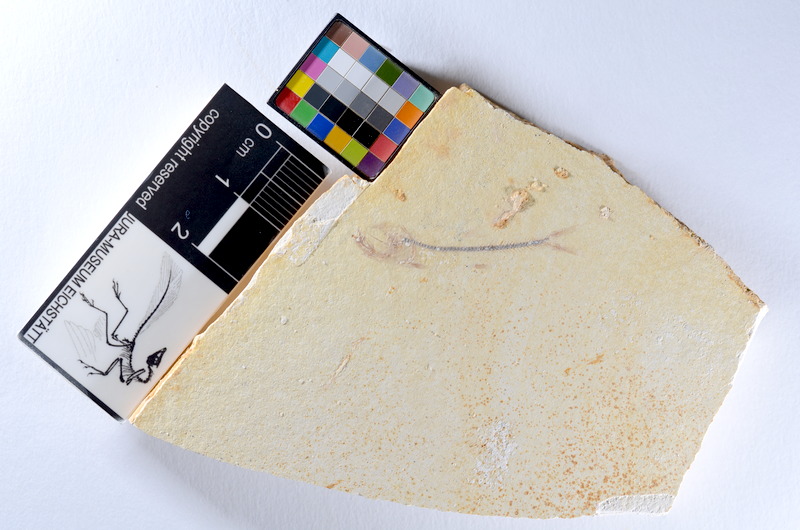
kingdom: Animalia
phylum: Chordata
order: Salmoniformes
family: Orthogonikleithridae
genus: Orthogonikleithrus
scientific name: Orthogonikleithrus hoelli
